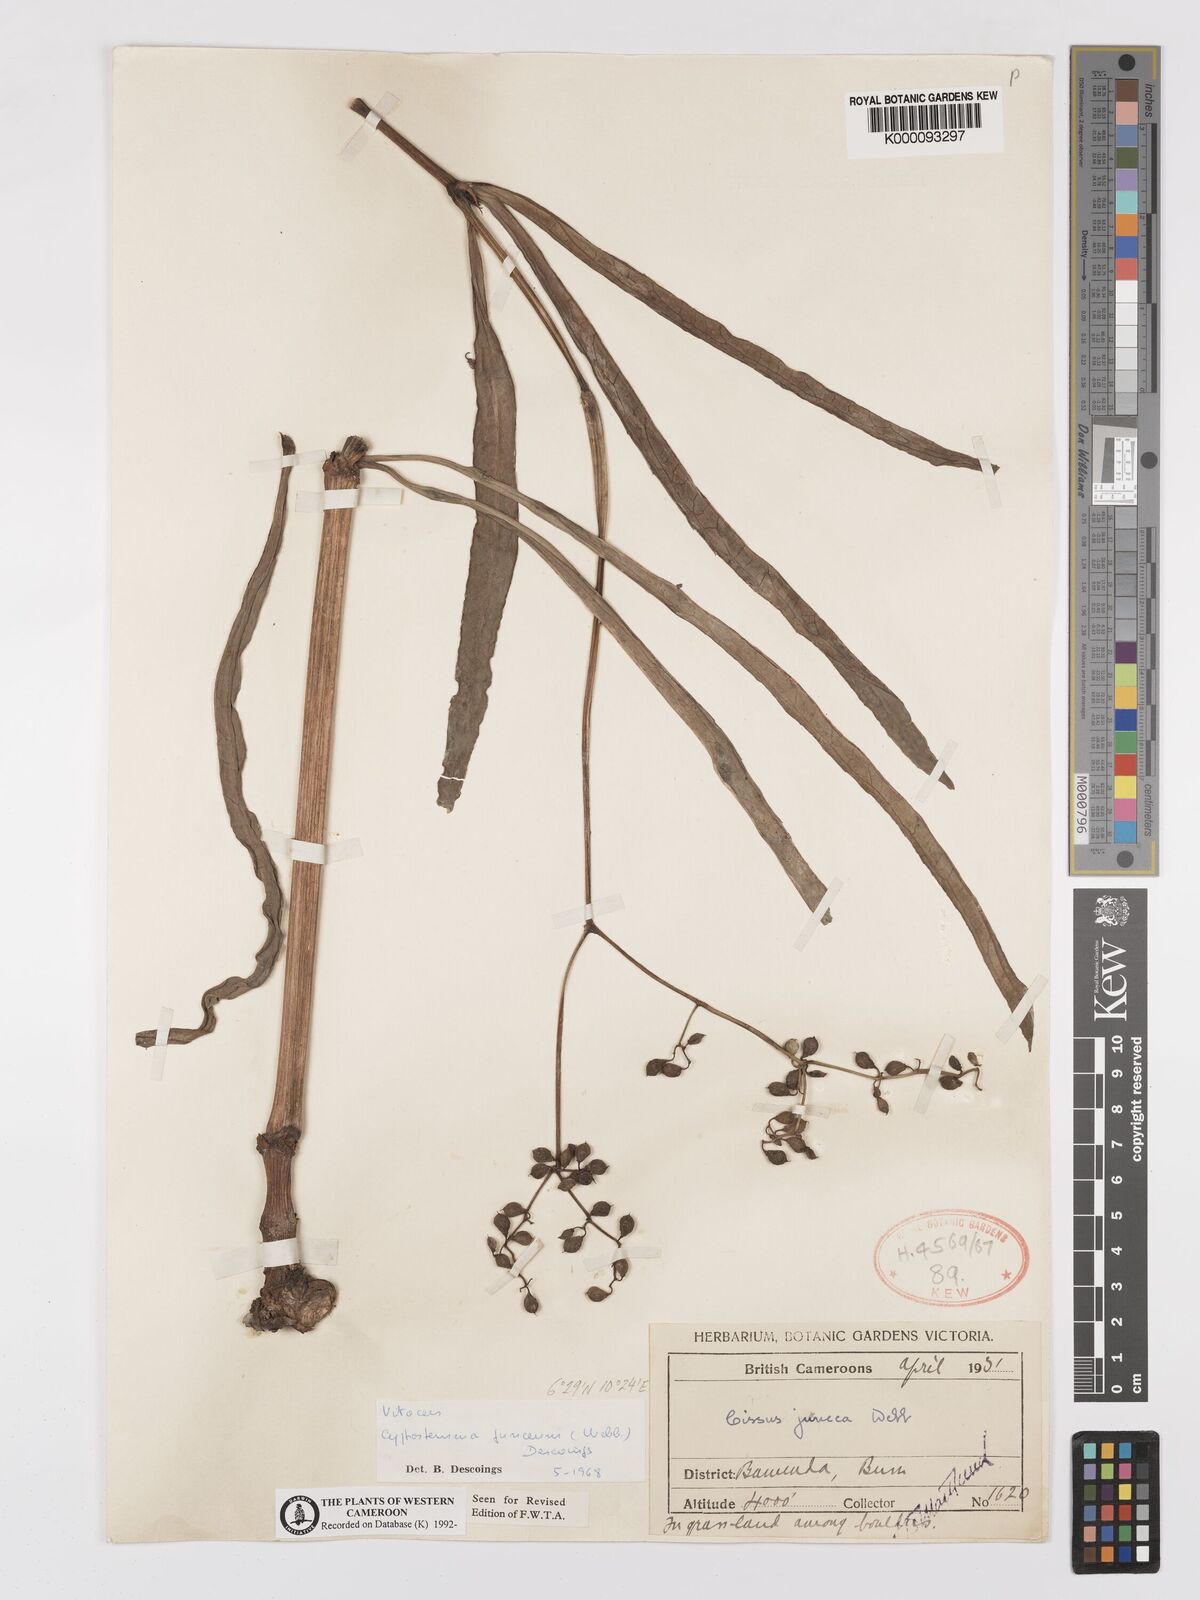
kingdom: Plantae
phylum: Tracheophyta
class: Magnoliopsida
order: Vitales
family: Vitaceae
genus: Cyphostemma
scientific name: Cyphostemma junceum
